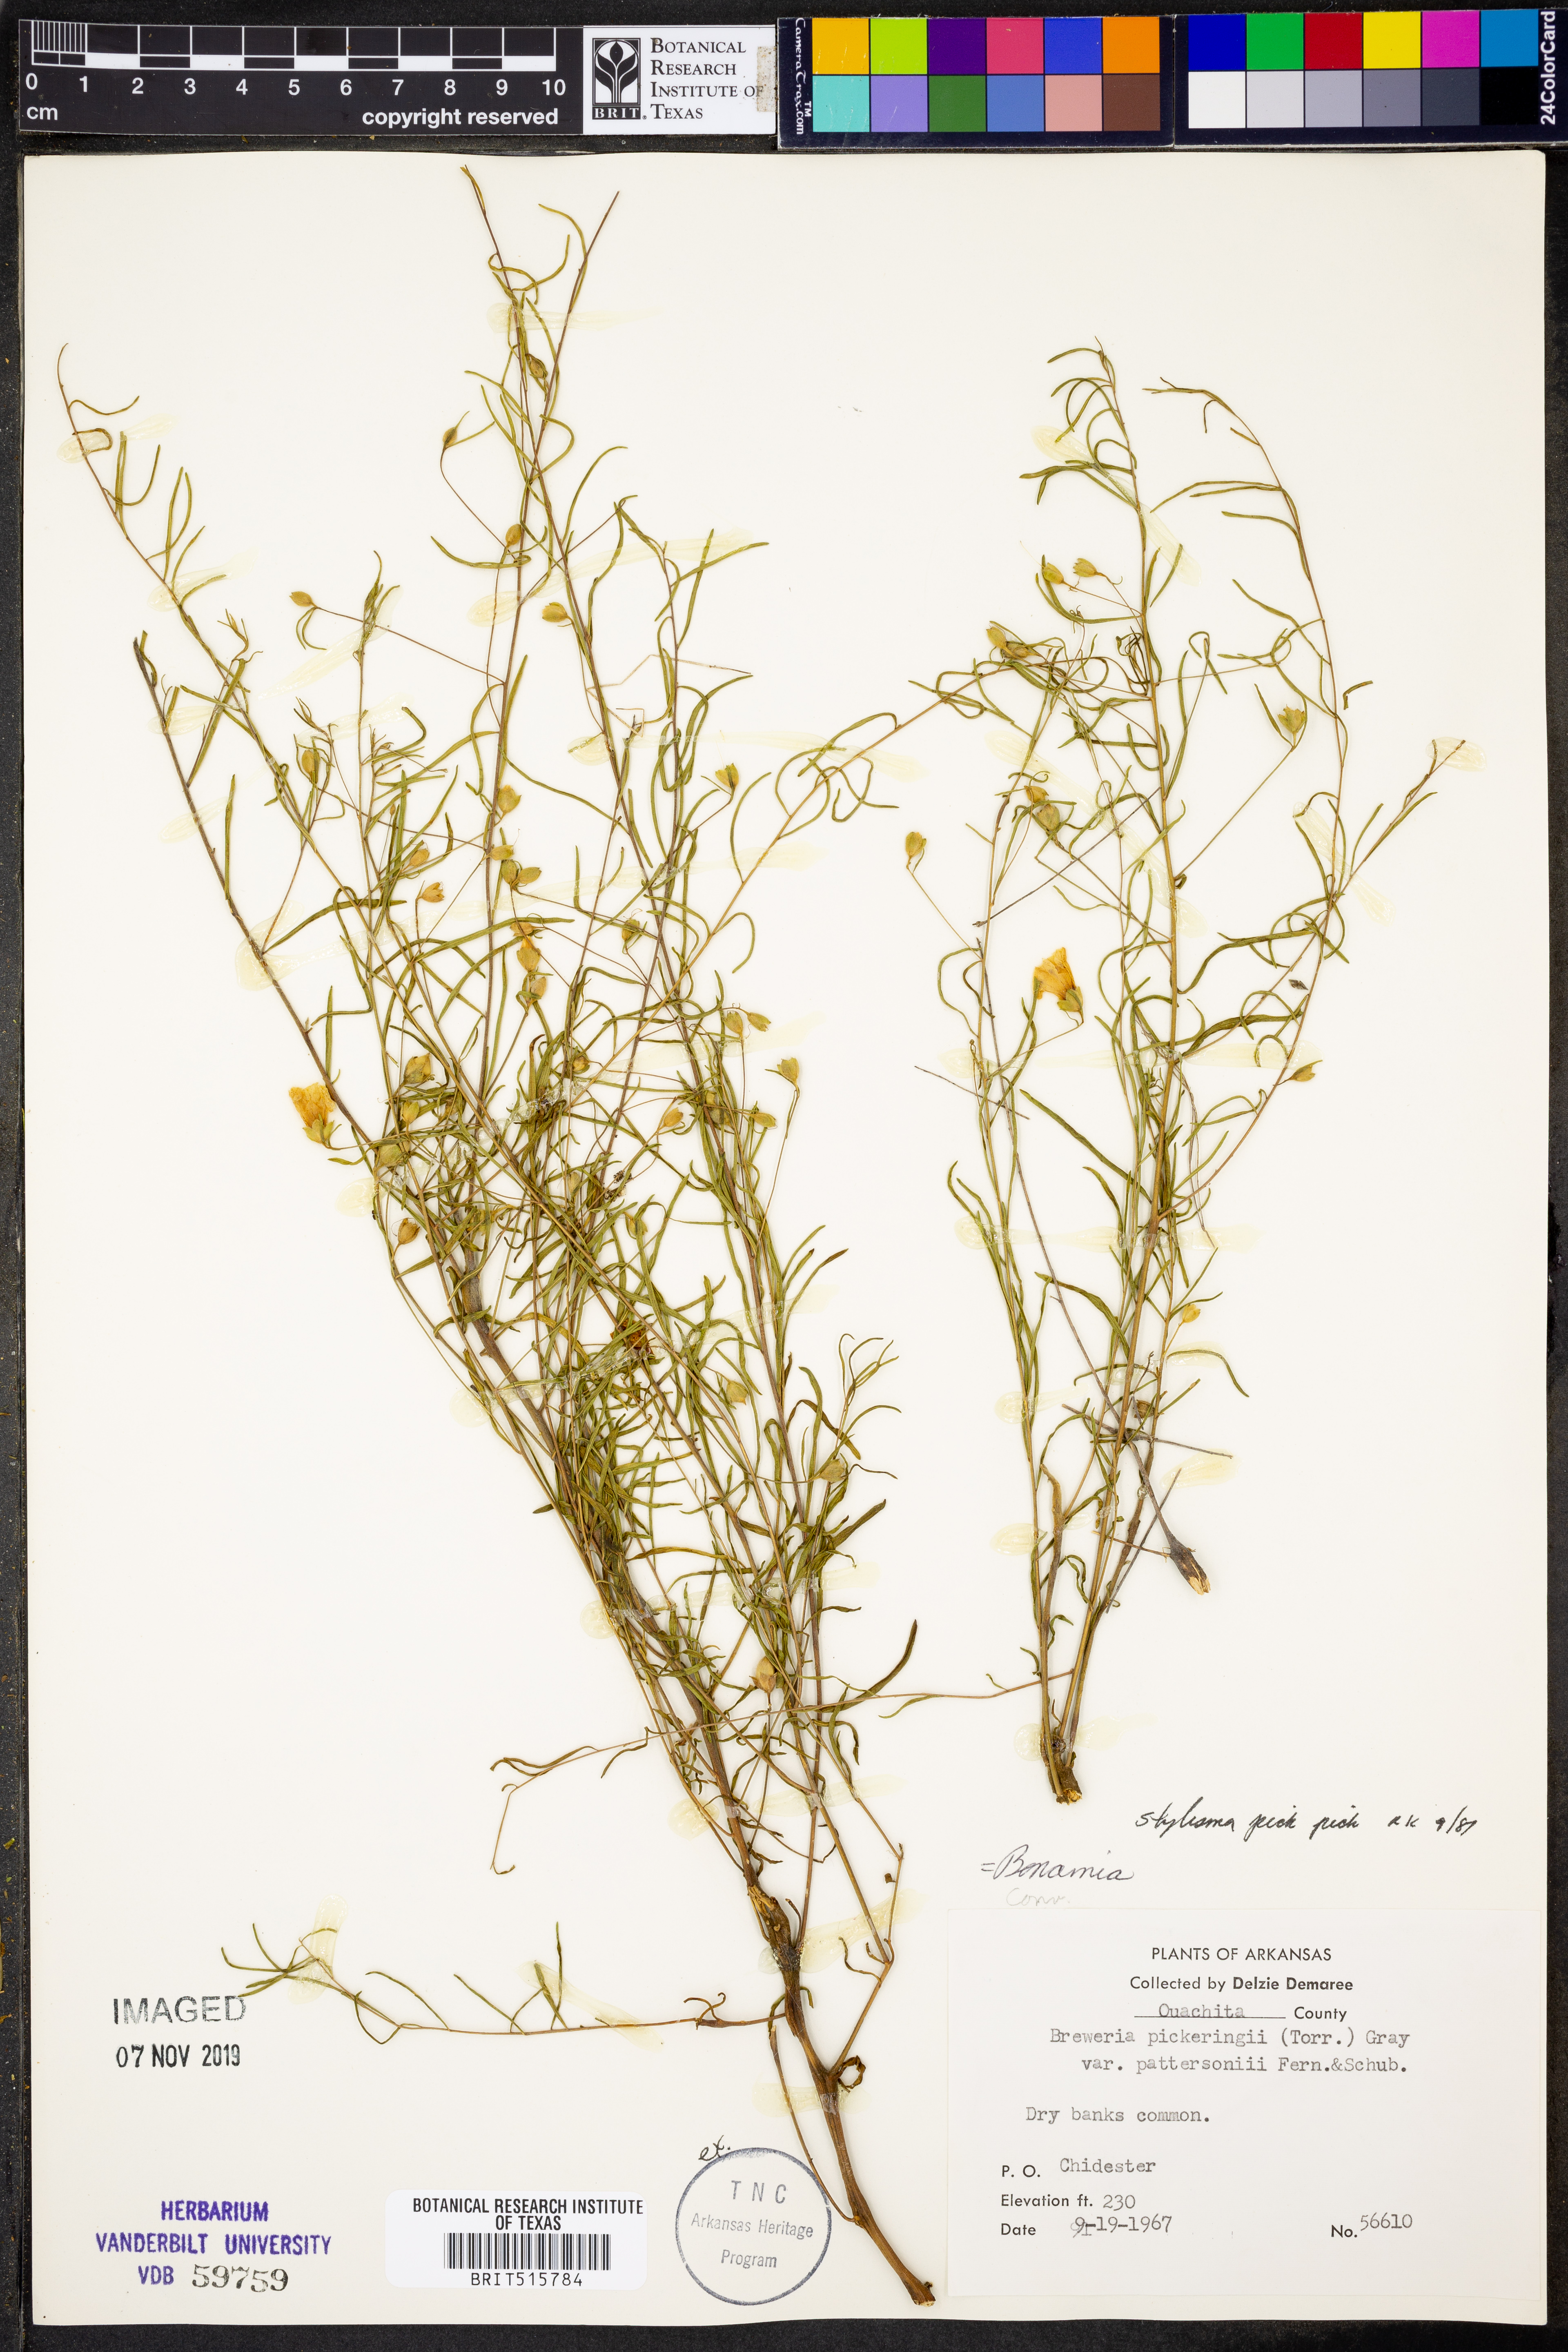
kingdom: Plantae
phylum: Tracheophyta
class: Magnoliopsida
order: Solanales
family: Convolvulaceae
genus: Stylisma
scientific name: Stylisma pickeringii
